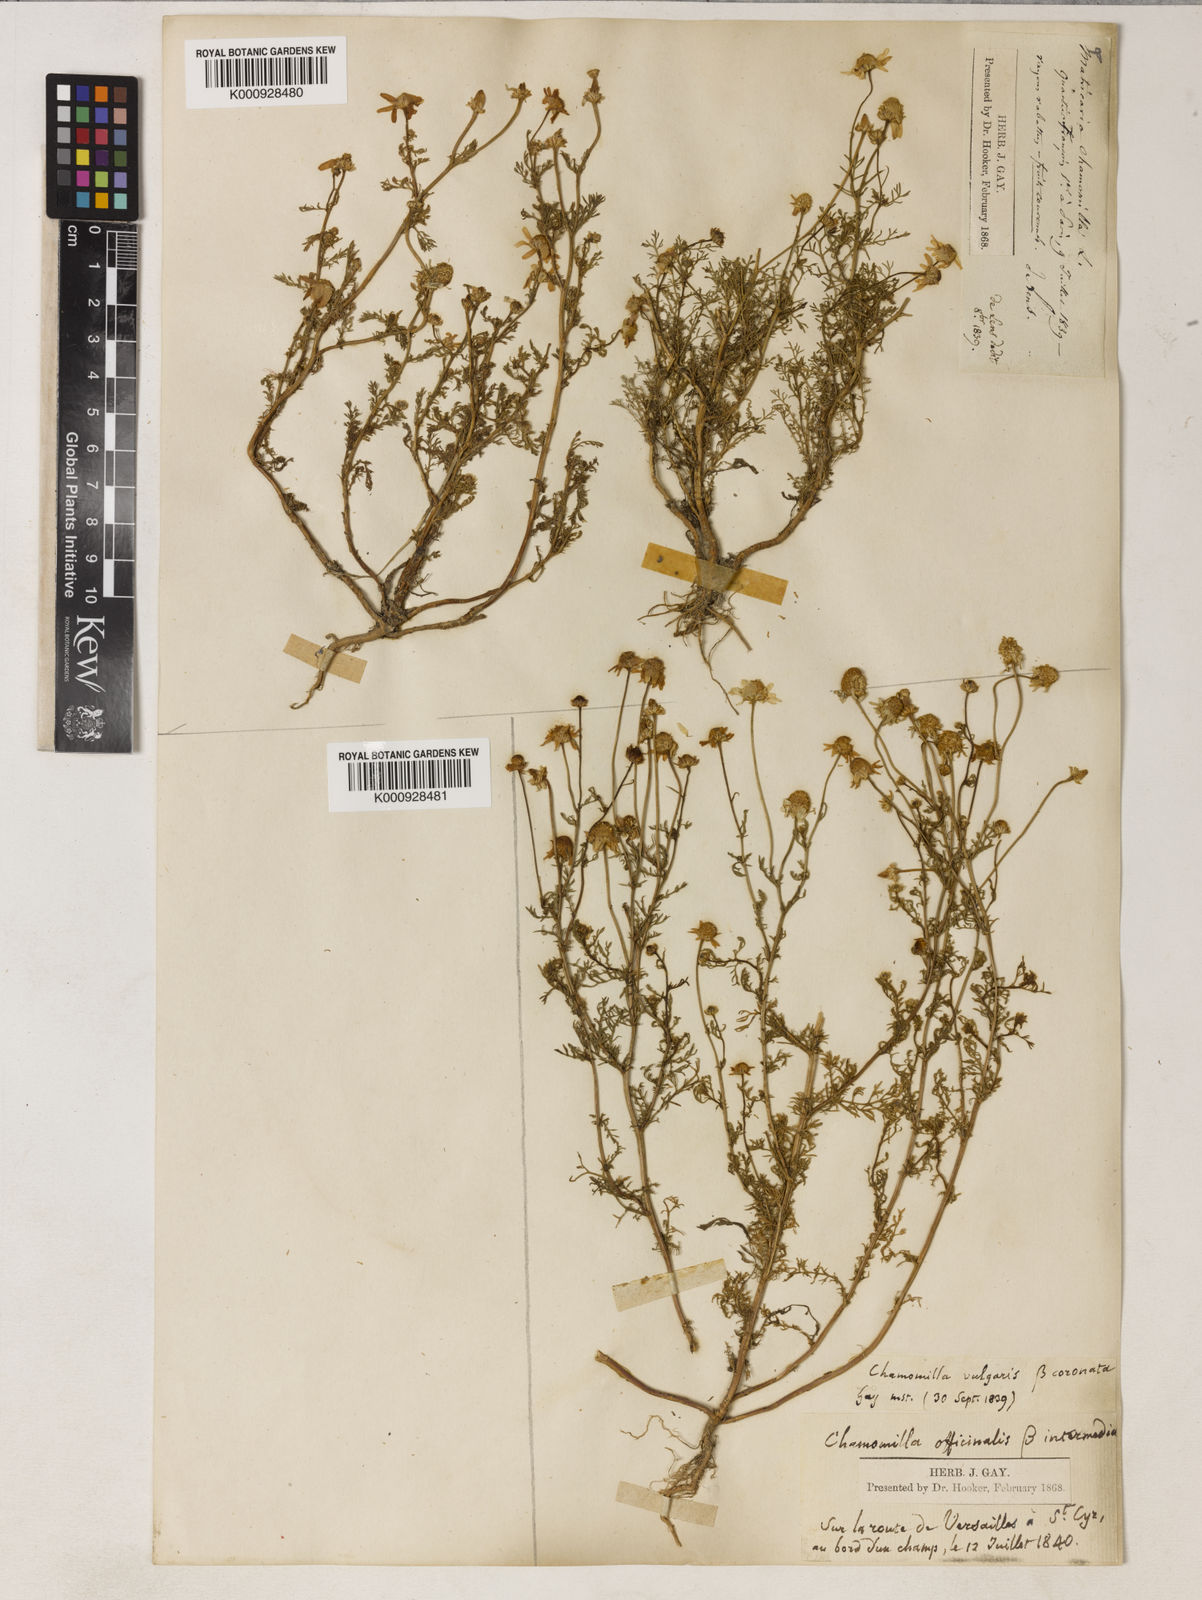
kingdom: Plantae
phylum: Tracheophyta
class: Magnoliopsida
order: Asterales
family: Asteraceae
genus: Matricaria
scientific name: Matricaria chamomilla
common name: Scented mayweed
